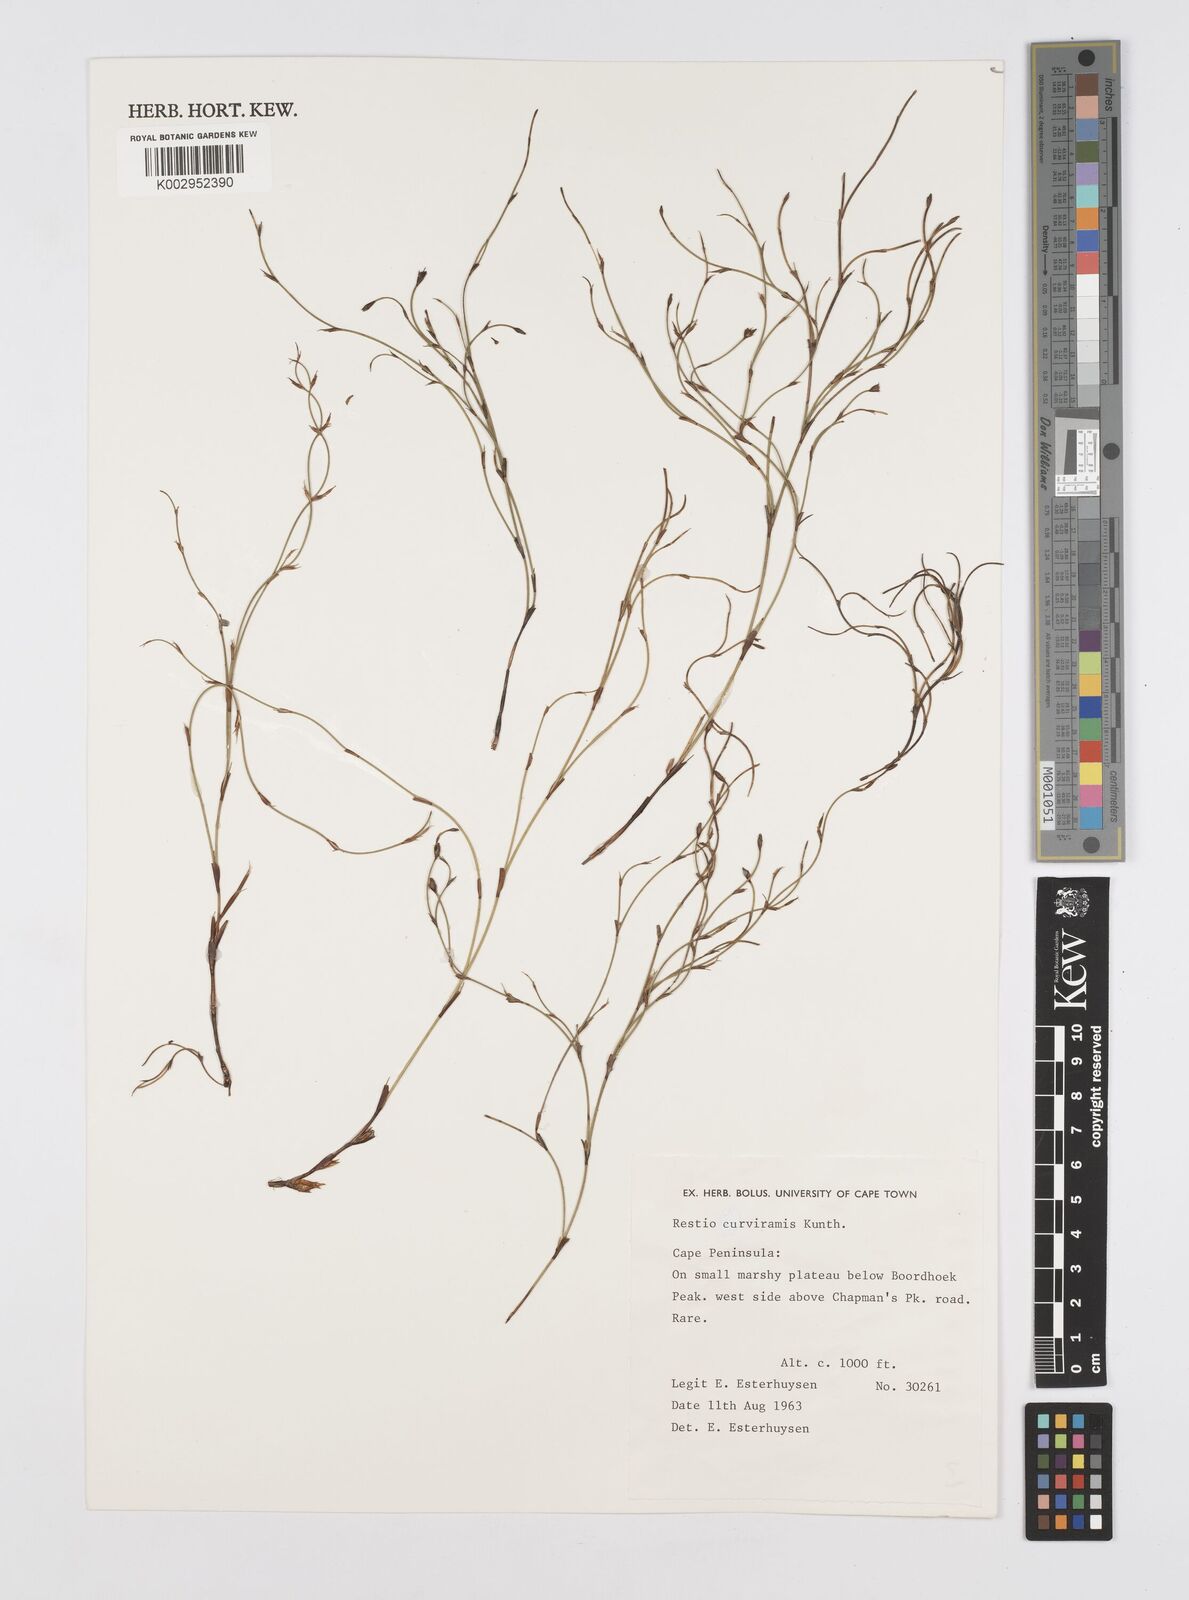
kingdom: Plantae
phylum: Tracheophyta
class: Liliopsida
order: Poales
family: Restionaceae
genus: Restio
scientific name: Restio curviramis
